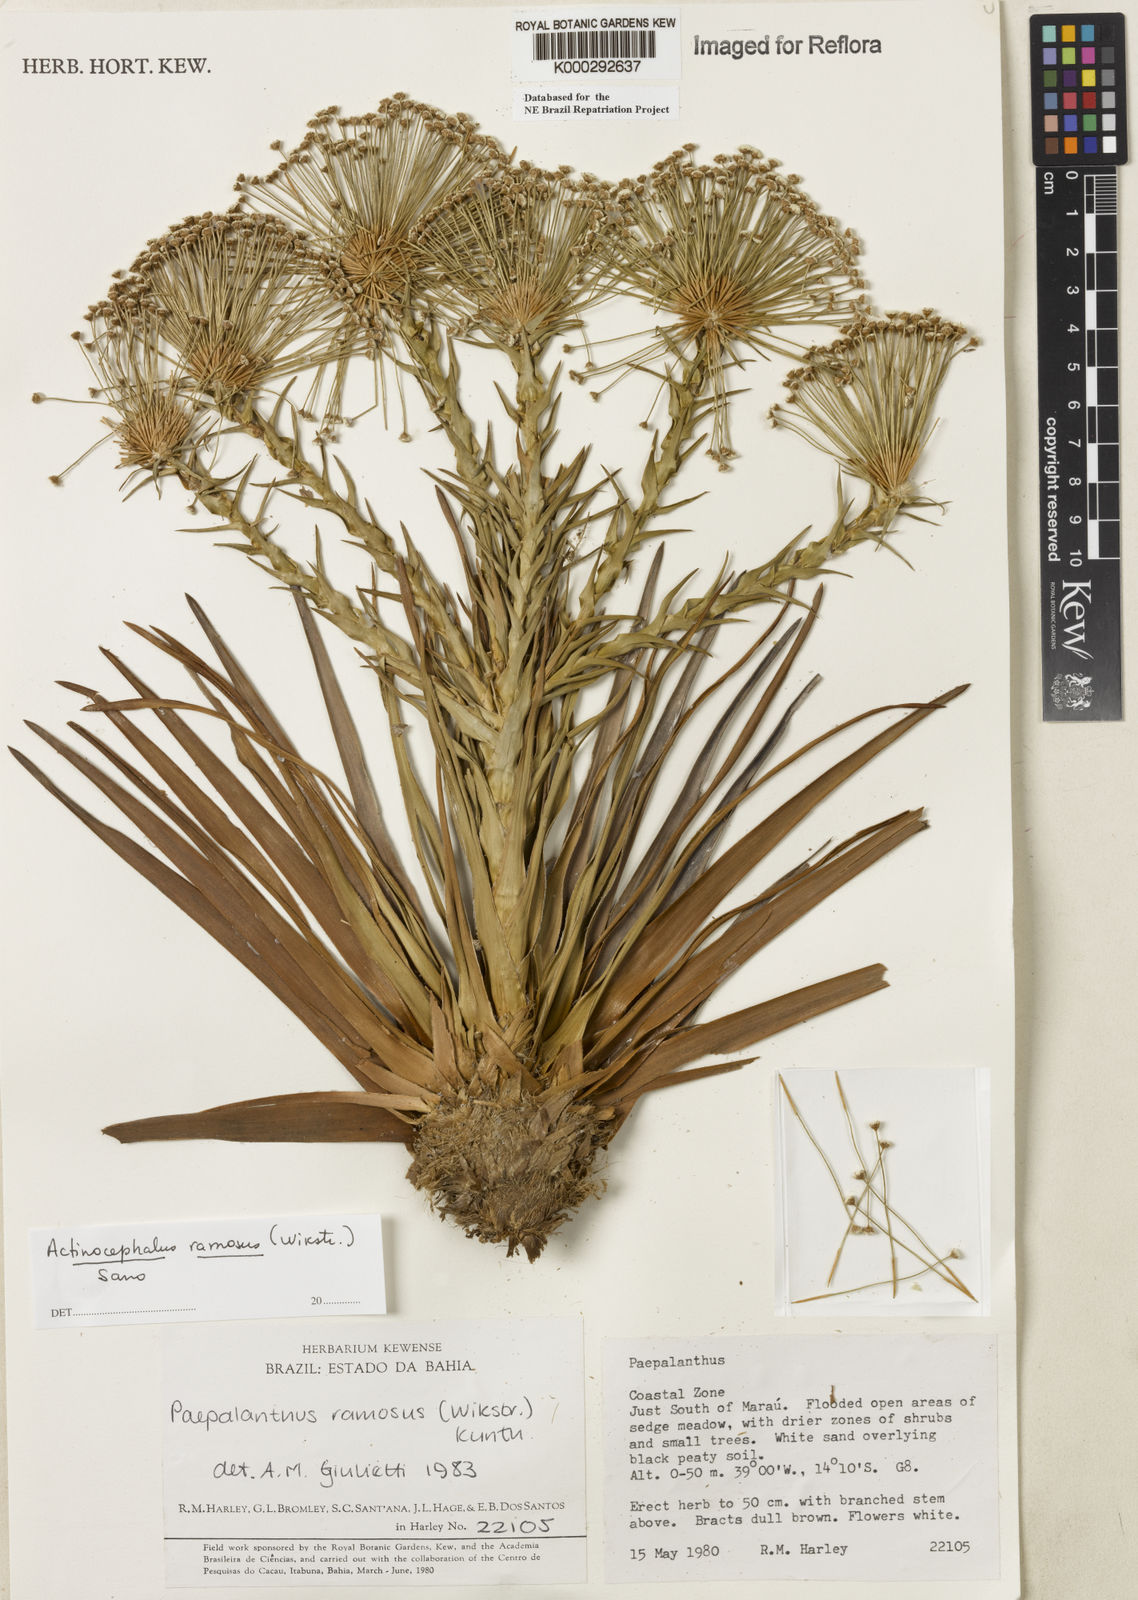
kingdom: Plantae
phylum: Tracheophyta
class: Liliopsida
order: Poales
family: Eriocaulaceae
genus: Paepalanthus
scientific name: Paepalanthus ramosus
